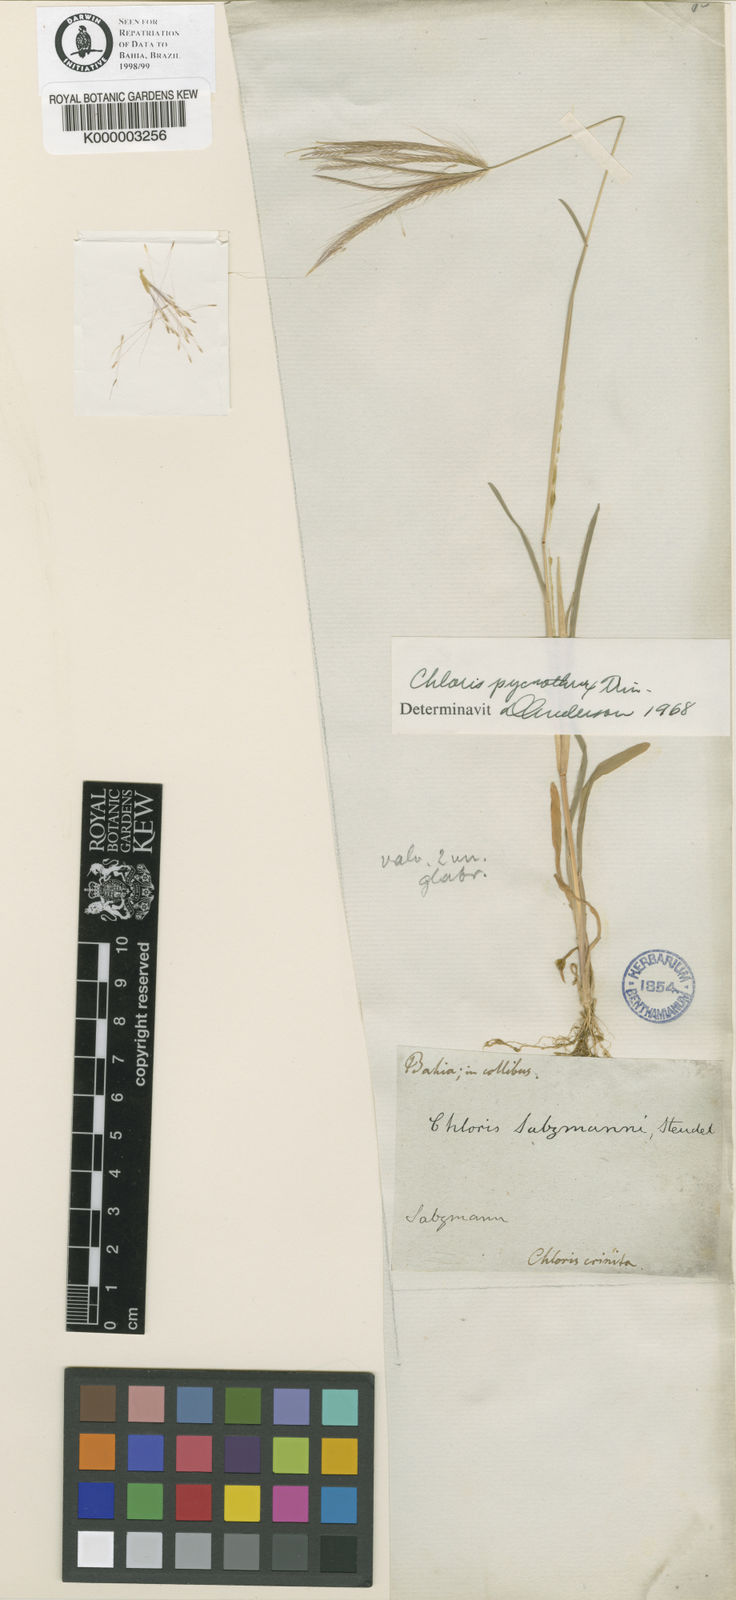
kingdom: Plantae
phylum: Tracheophyta
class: Liliopsida
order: Poales
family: Poaceae
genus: Chloris
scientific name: Chloris pycnothrix
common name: Spiderweb chloris
